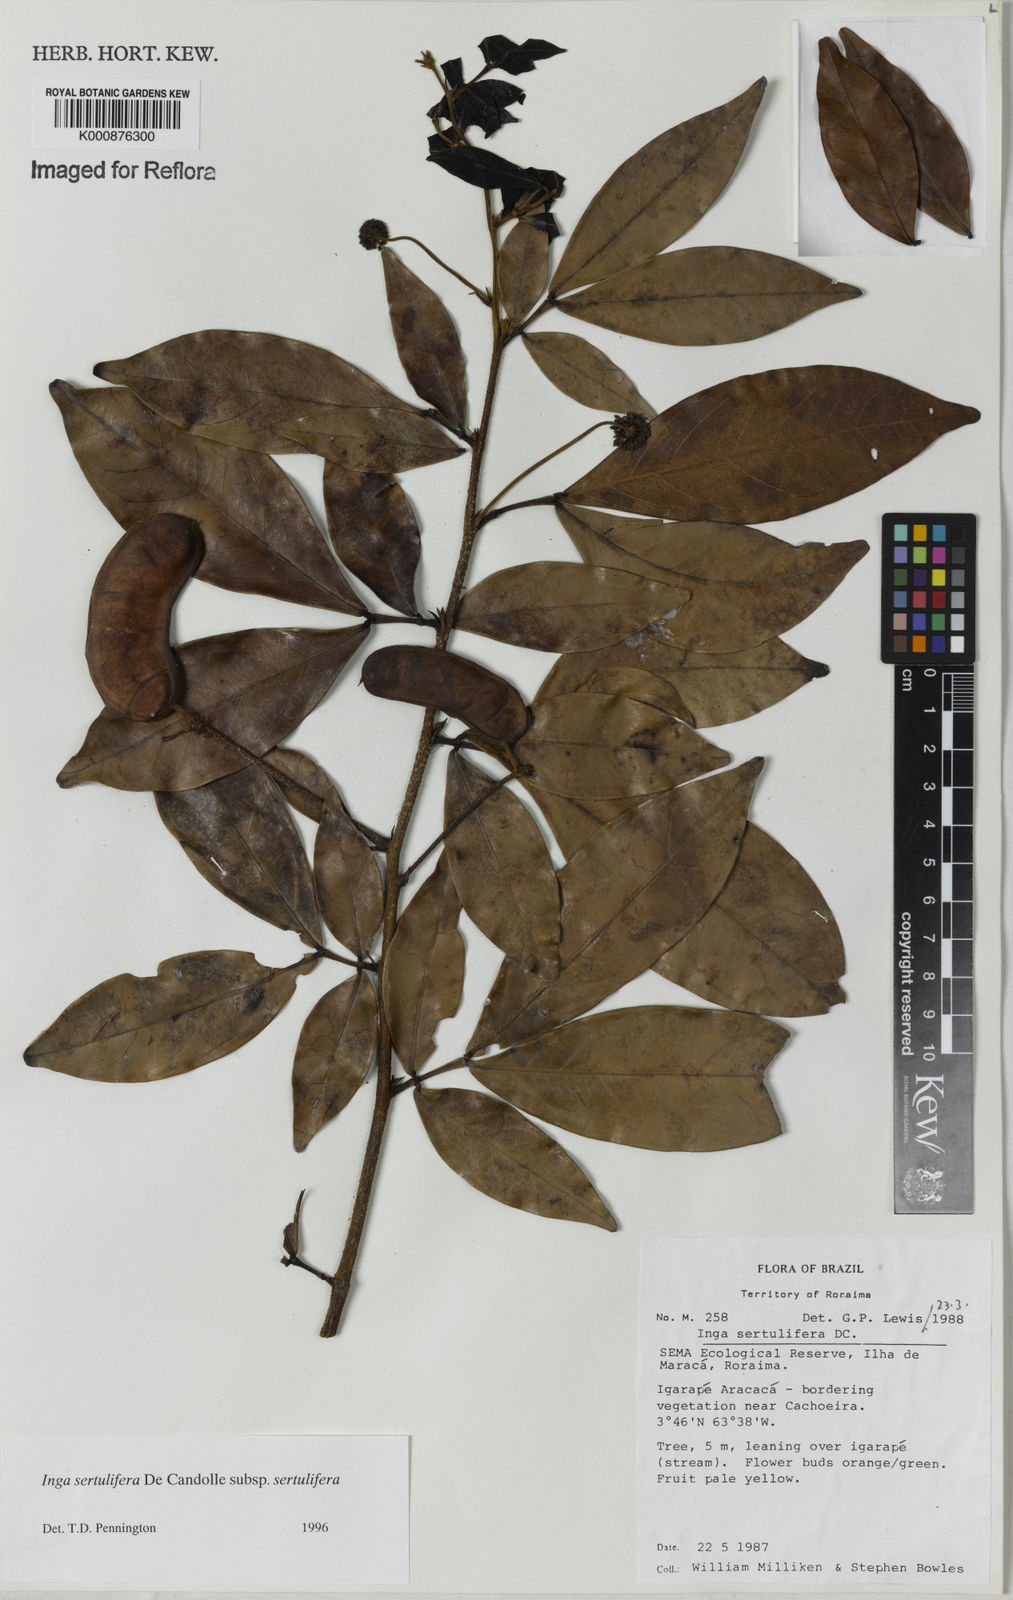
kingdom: Plantae
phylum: Tracheophyta
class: Magnoliopsida
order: Fabales
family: Fabaceae
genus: Inga
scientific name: Inga sertulifera
